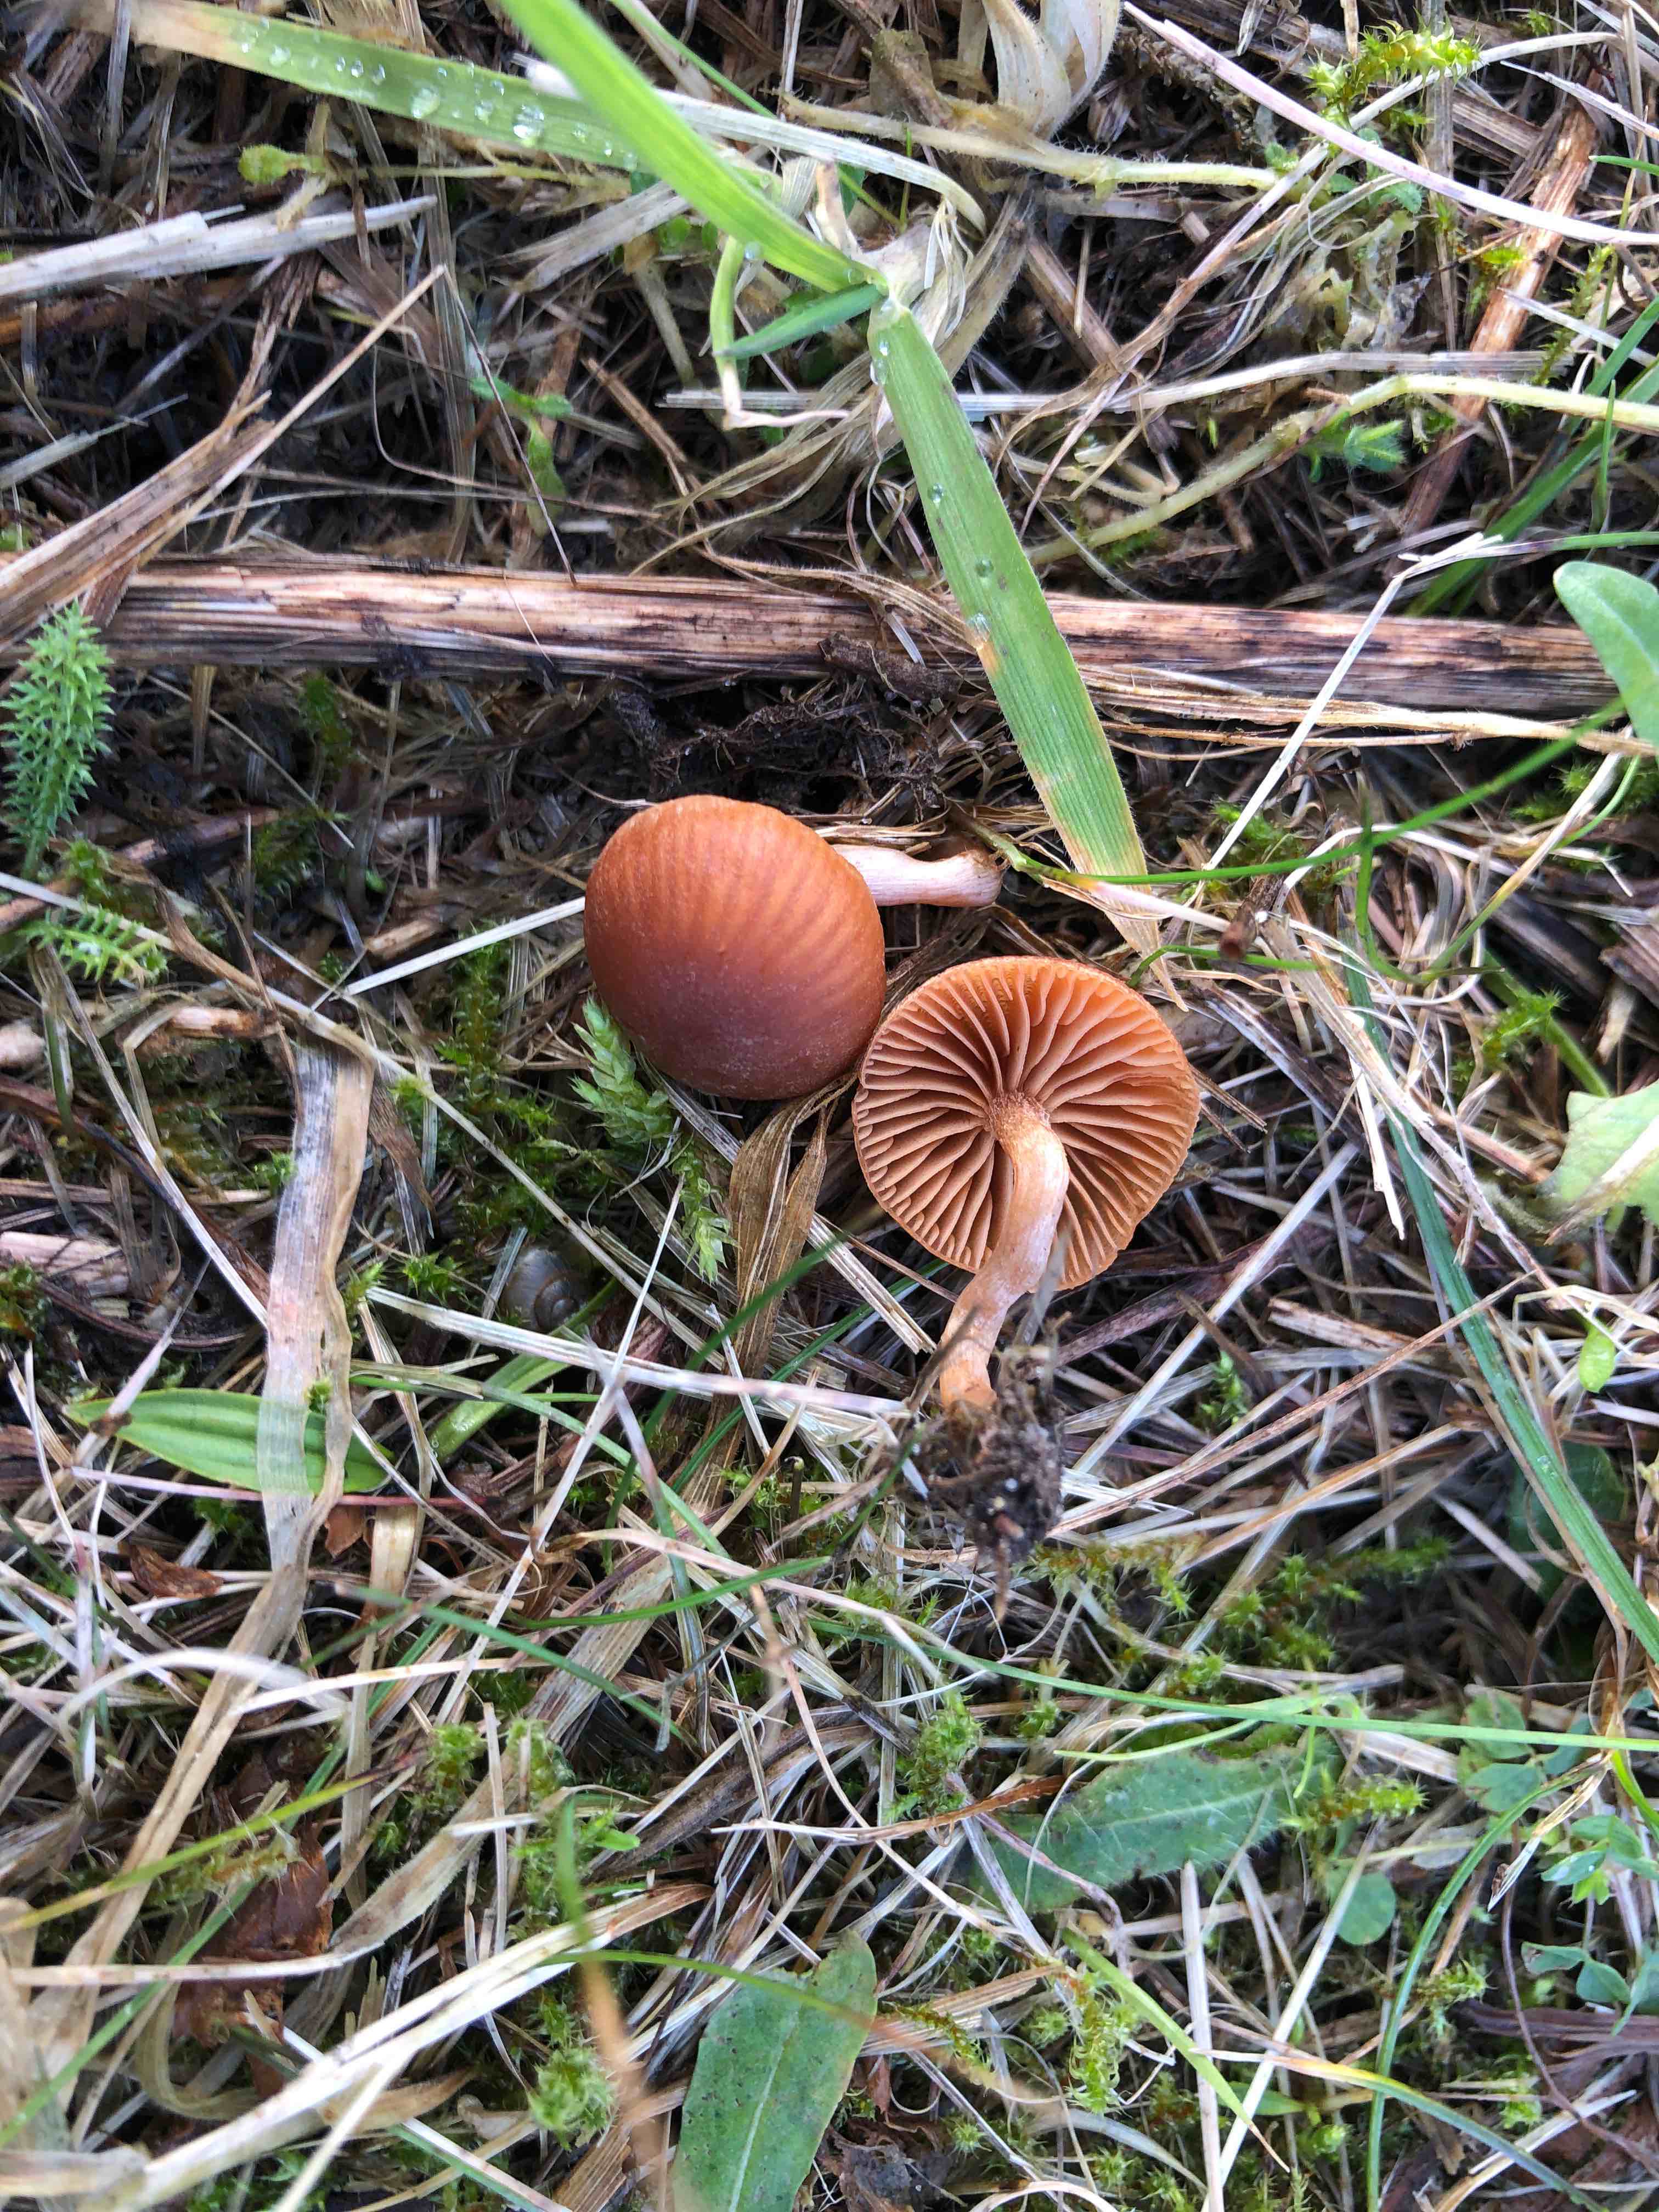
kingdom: Fungi
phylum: Basidiomycota
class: Agaricomycetes
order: Agaricales
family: Tubariaceae
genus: Tubaria
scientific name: Tubaria furfuracea
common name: kliddet fnughat
